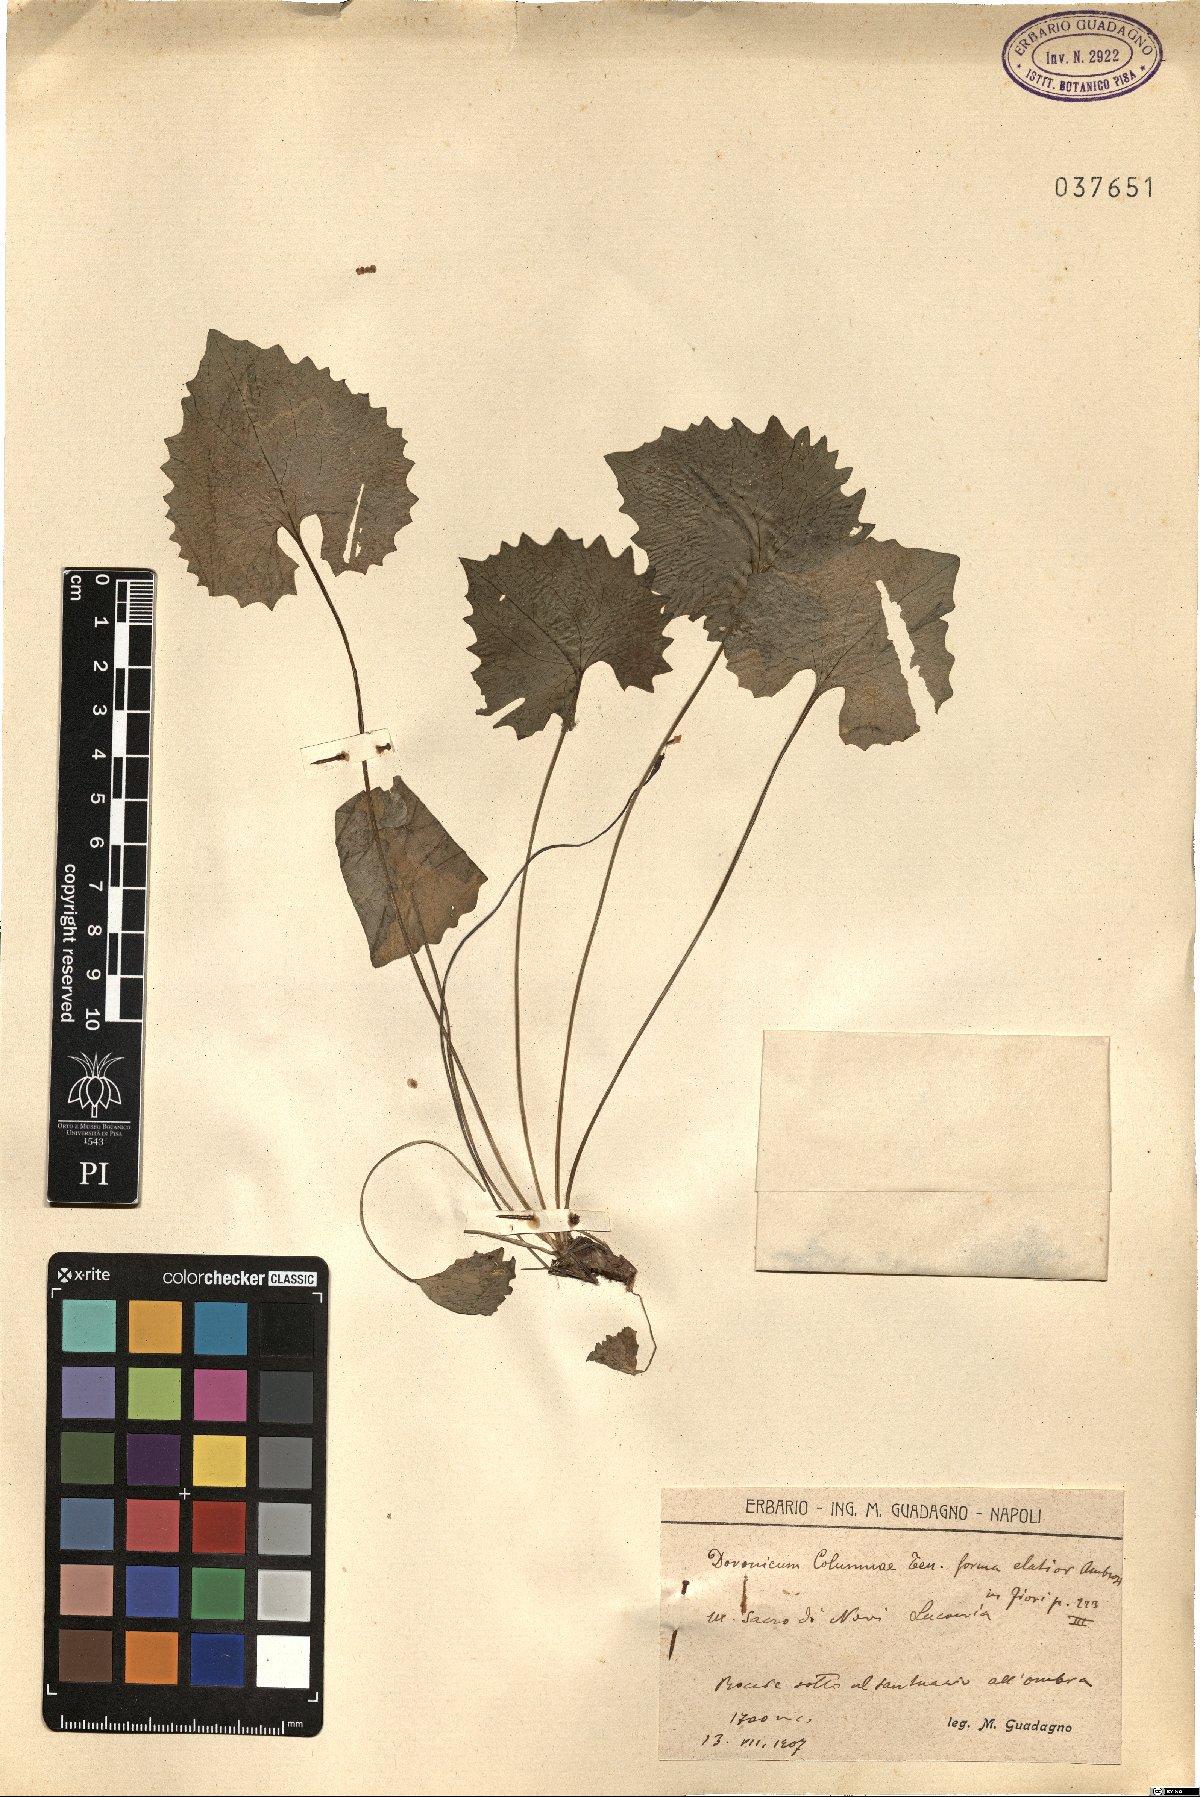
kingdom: Plantae
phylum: Tracheophyta
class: Magnoliopsida
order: Asterales
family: Asteraceae
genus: Doronicum
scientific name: Doronicum columnae
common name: Eastern leopard's-bane
